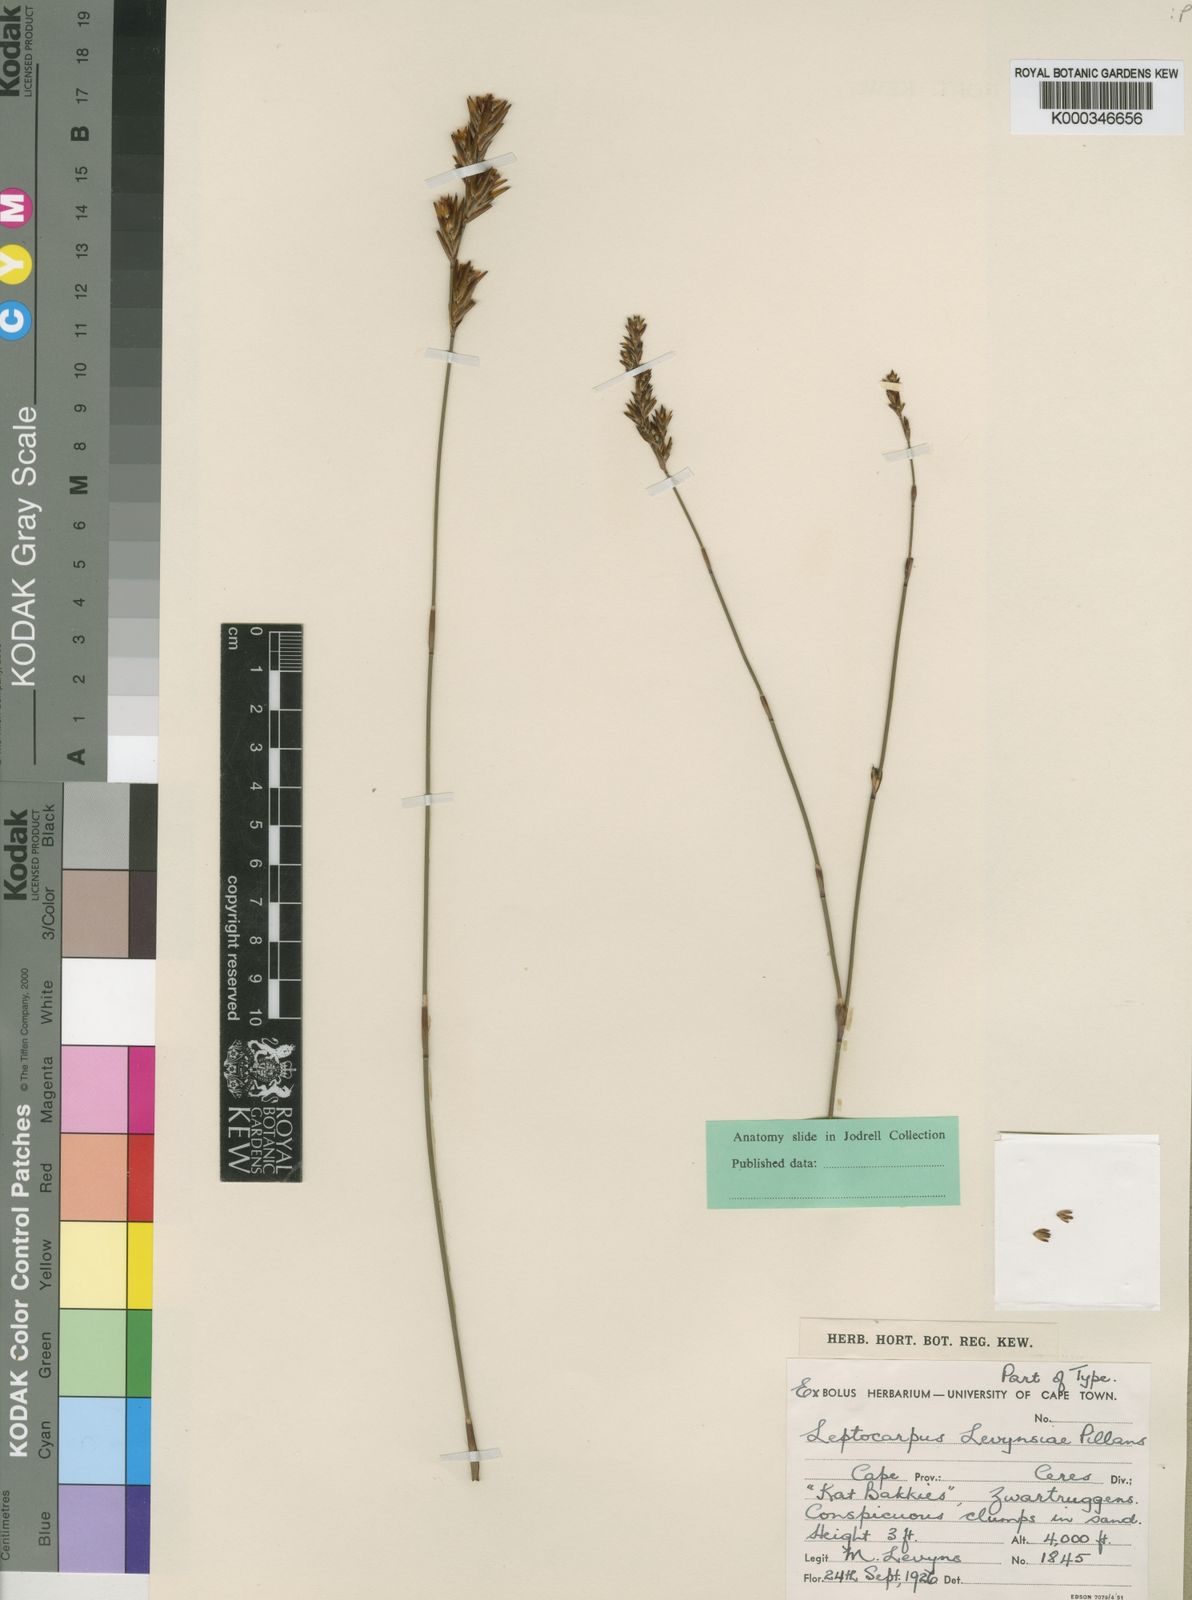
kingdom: Plantae
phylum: Tracheophyta
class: Liliopsida
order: Poales
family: Restionaceae
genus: Restio
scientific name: Restio levynsiae
